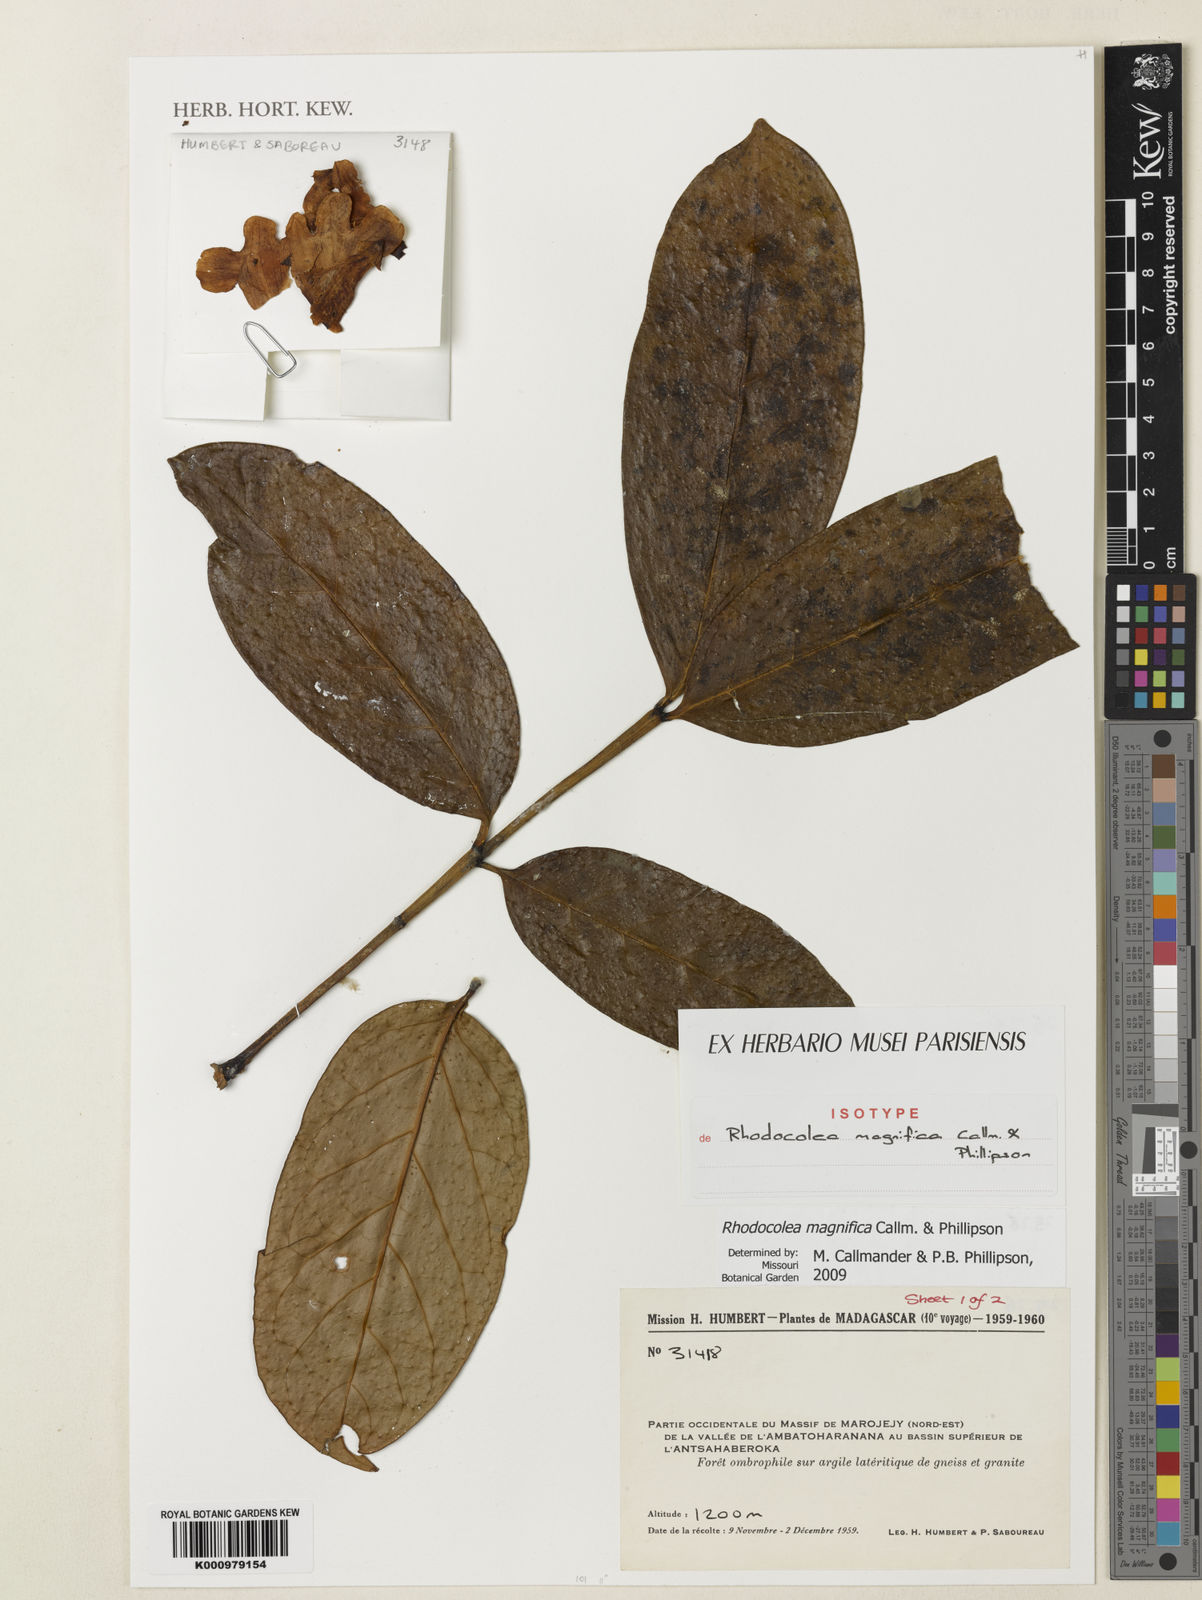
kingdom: Plantae
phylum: Tracheophyta
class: Magnoliopsida
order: Lamiales
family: Bignoniaceae
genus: Rhodocolea
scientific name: Rhodocolea magnifica
